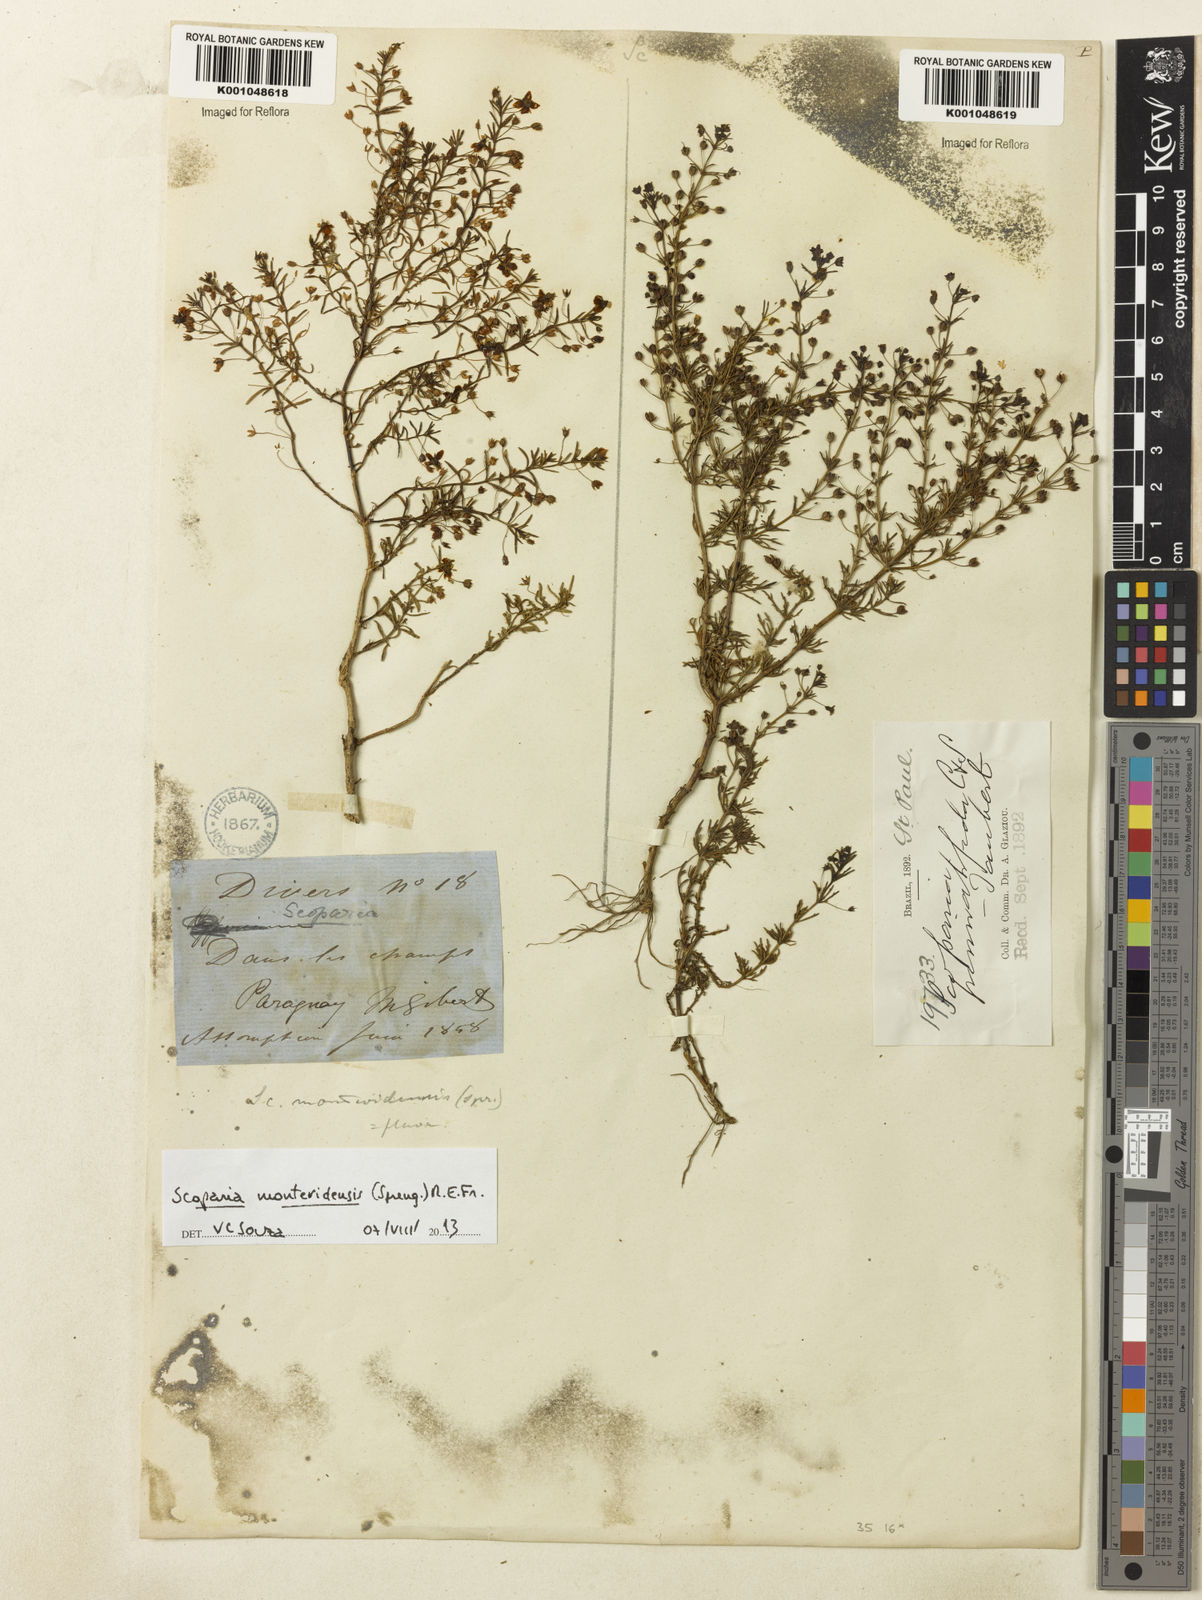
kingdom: Plantae
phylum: Tracheophyta
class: Magnoliopsida
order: Lamiales
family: Plantaginaceae
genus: Scoparia
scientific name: Scoparia montevidensis
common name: Broomwort
